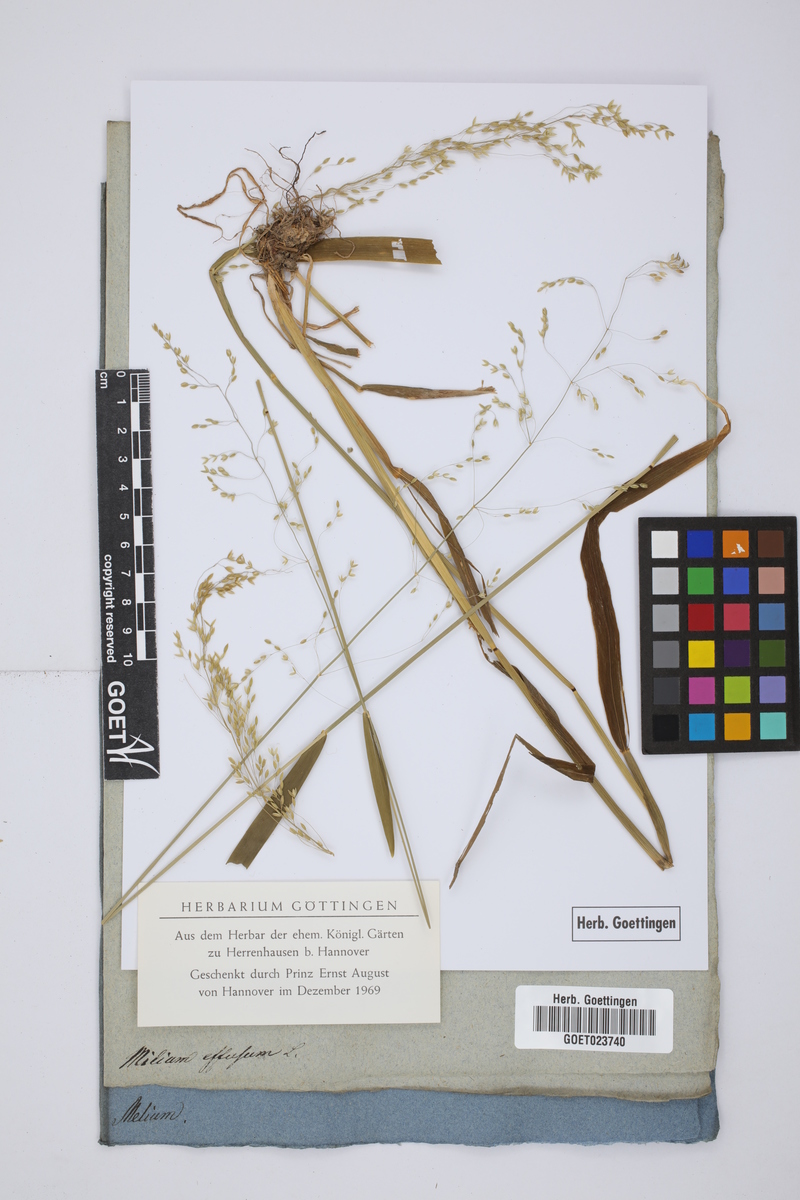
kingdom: Plantae
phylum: Tracheophyta
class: Liliopsida
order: Poales
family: Poaceae
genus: Milium
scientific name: Milium effusum
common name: Wood millet
